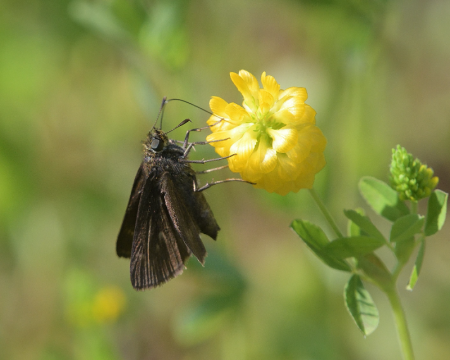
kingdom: Animalia
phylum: Arthropoda
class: Insecta
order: Lepidoptera
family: Hesperiidae
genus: Euphyes
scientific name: Euphyes vestris
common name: Dun Skipper
